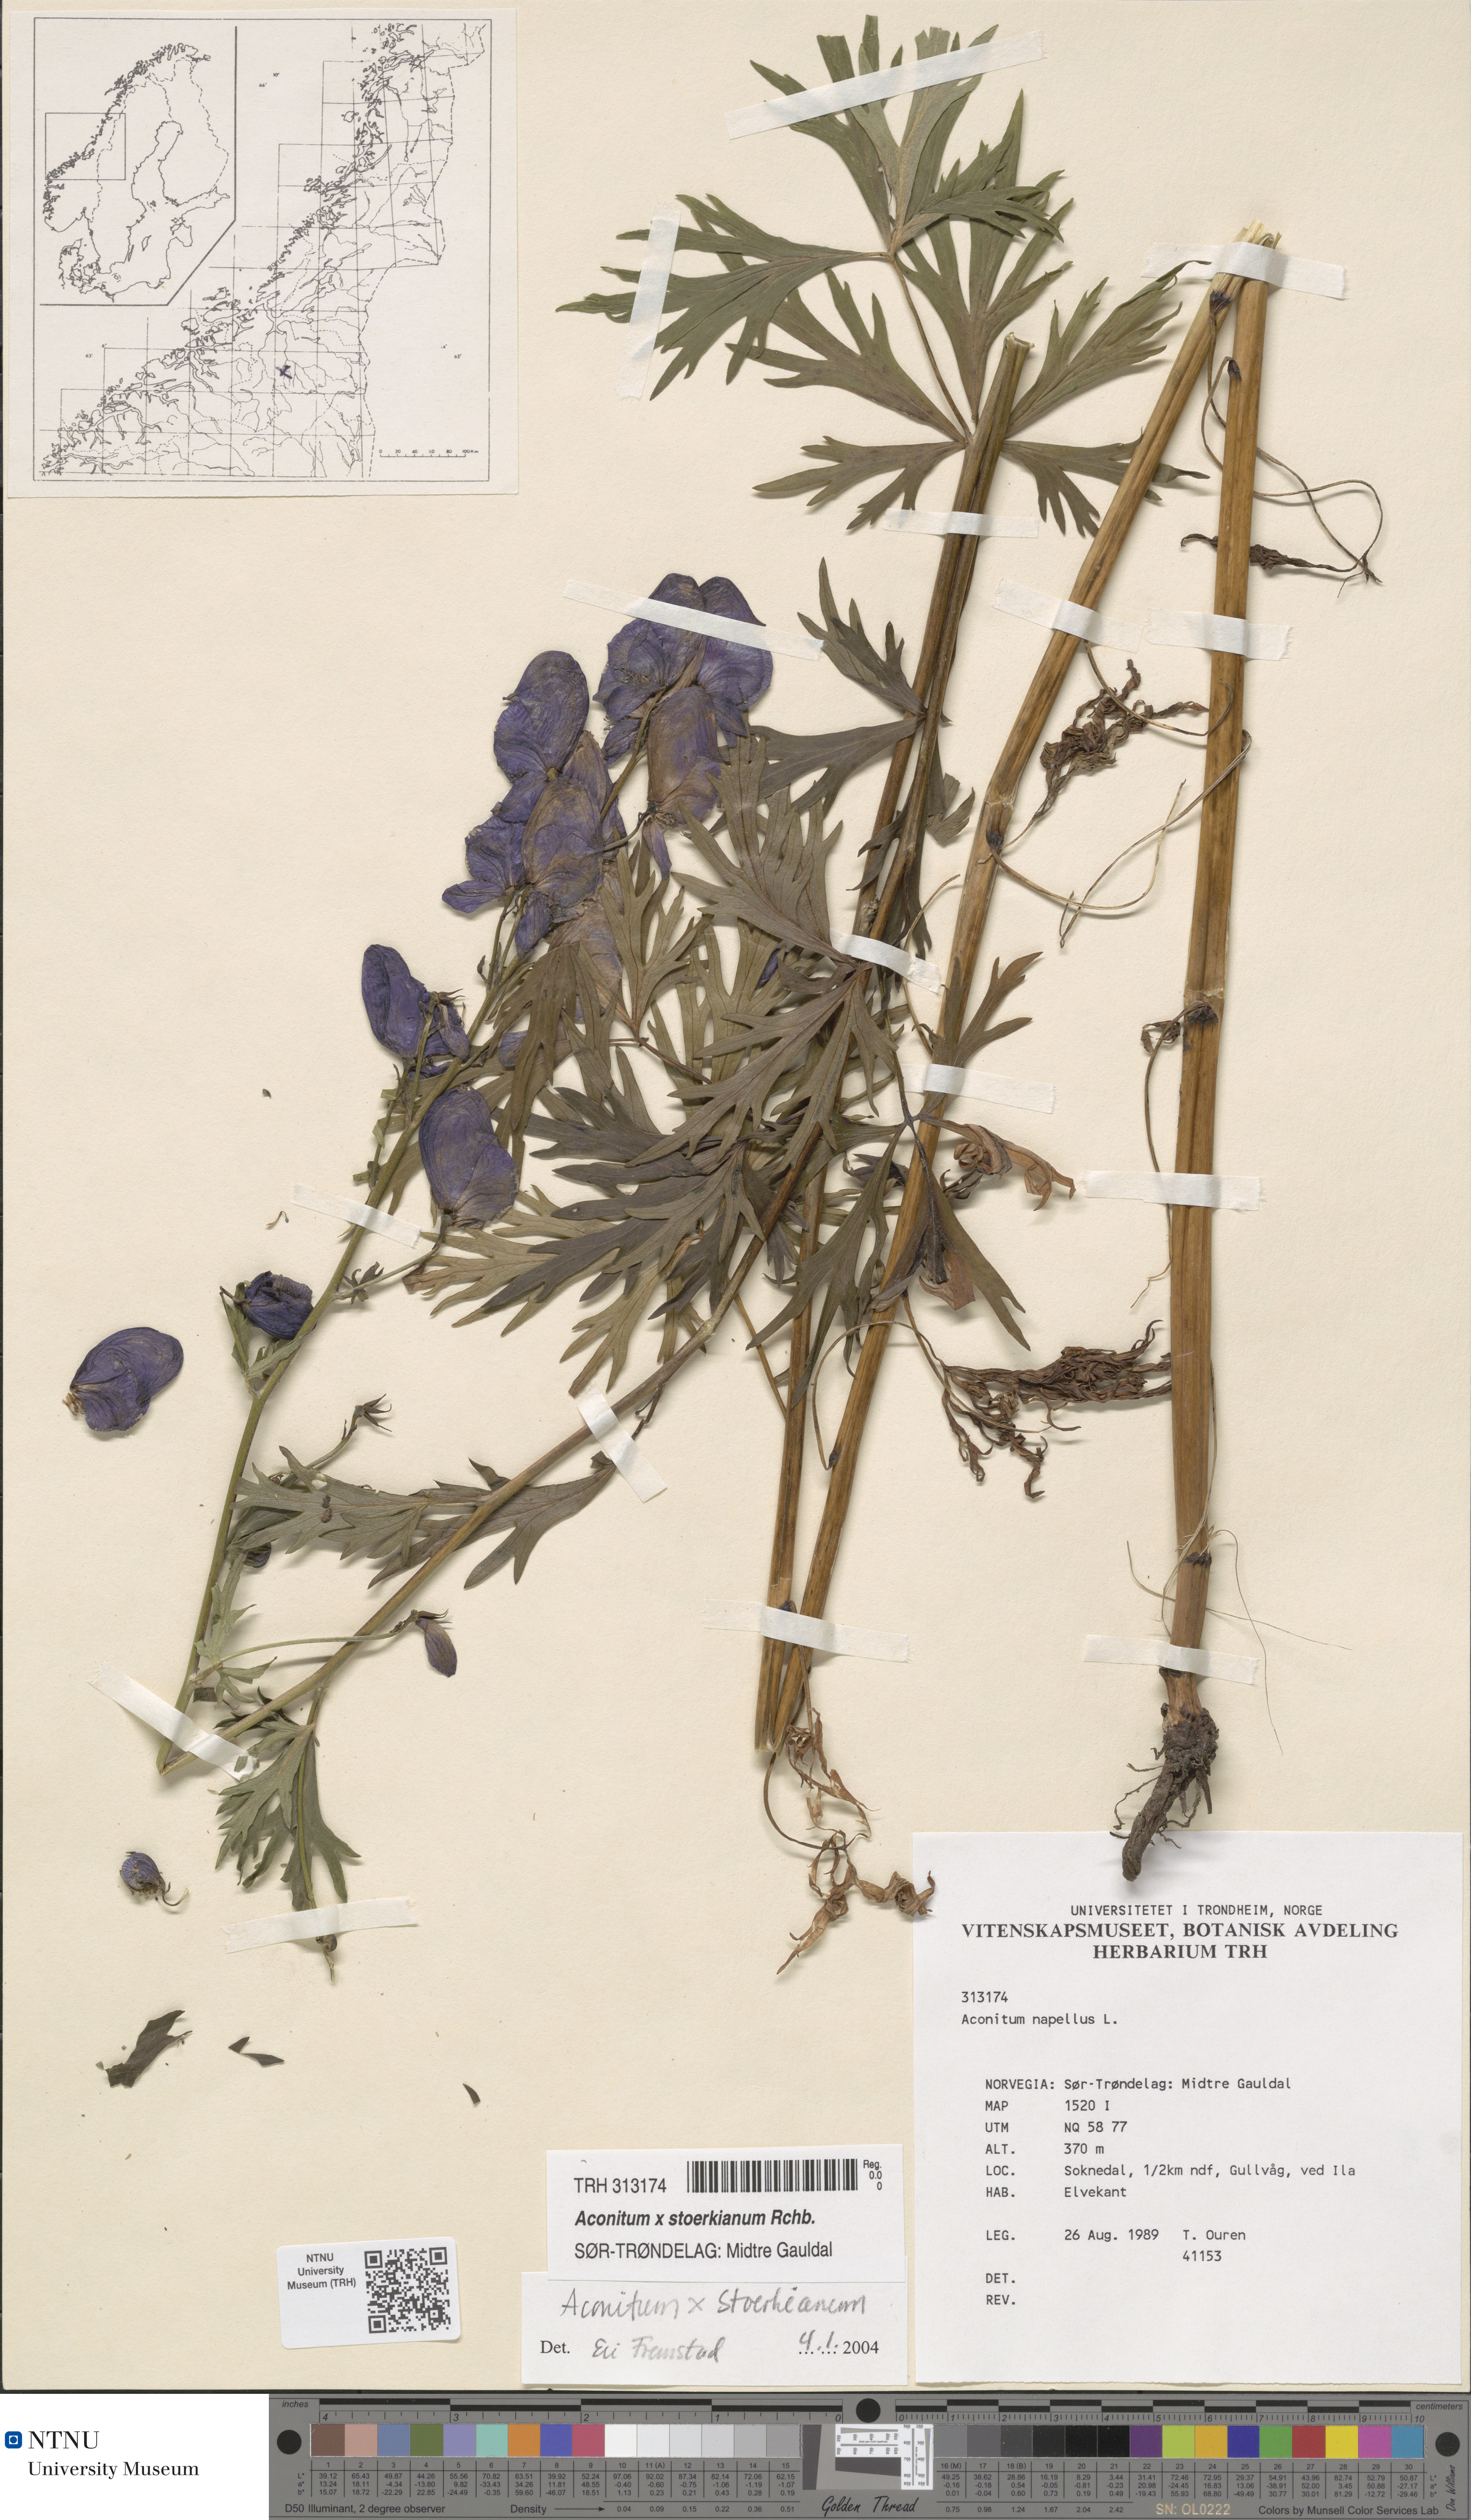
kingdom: Plantae
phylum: Tracheophyta
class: Magnoliopsida
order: Ranunculales
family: Ranunculaceae
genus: Aconitum
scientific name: Aconitum cammarum
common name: Hybrid monk's-hood
